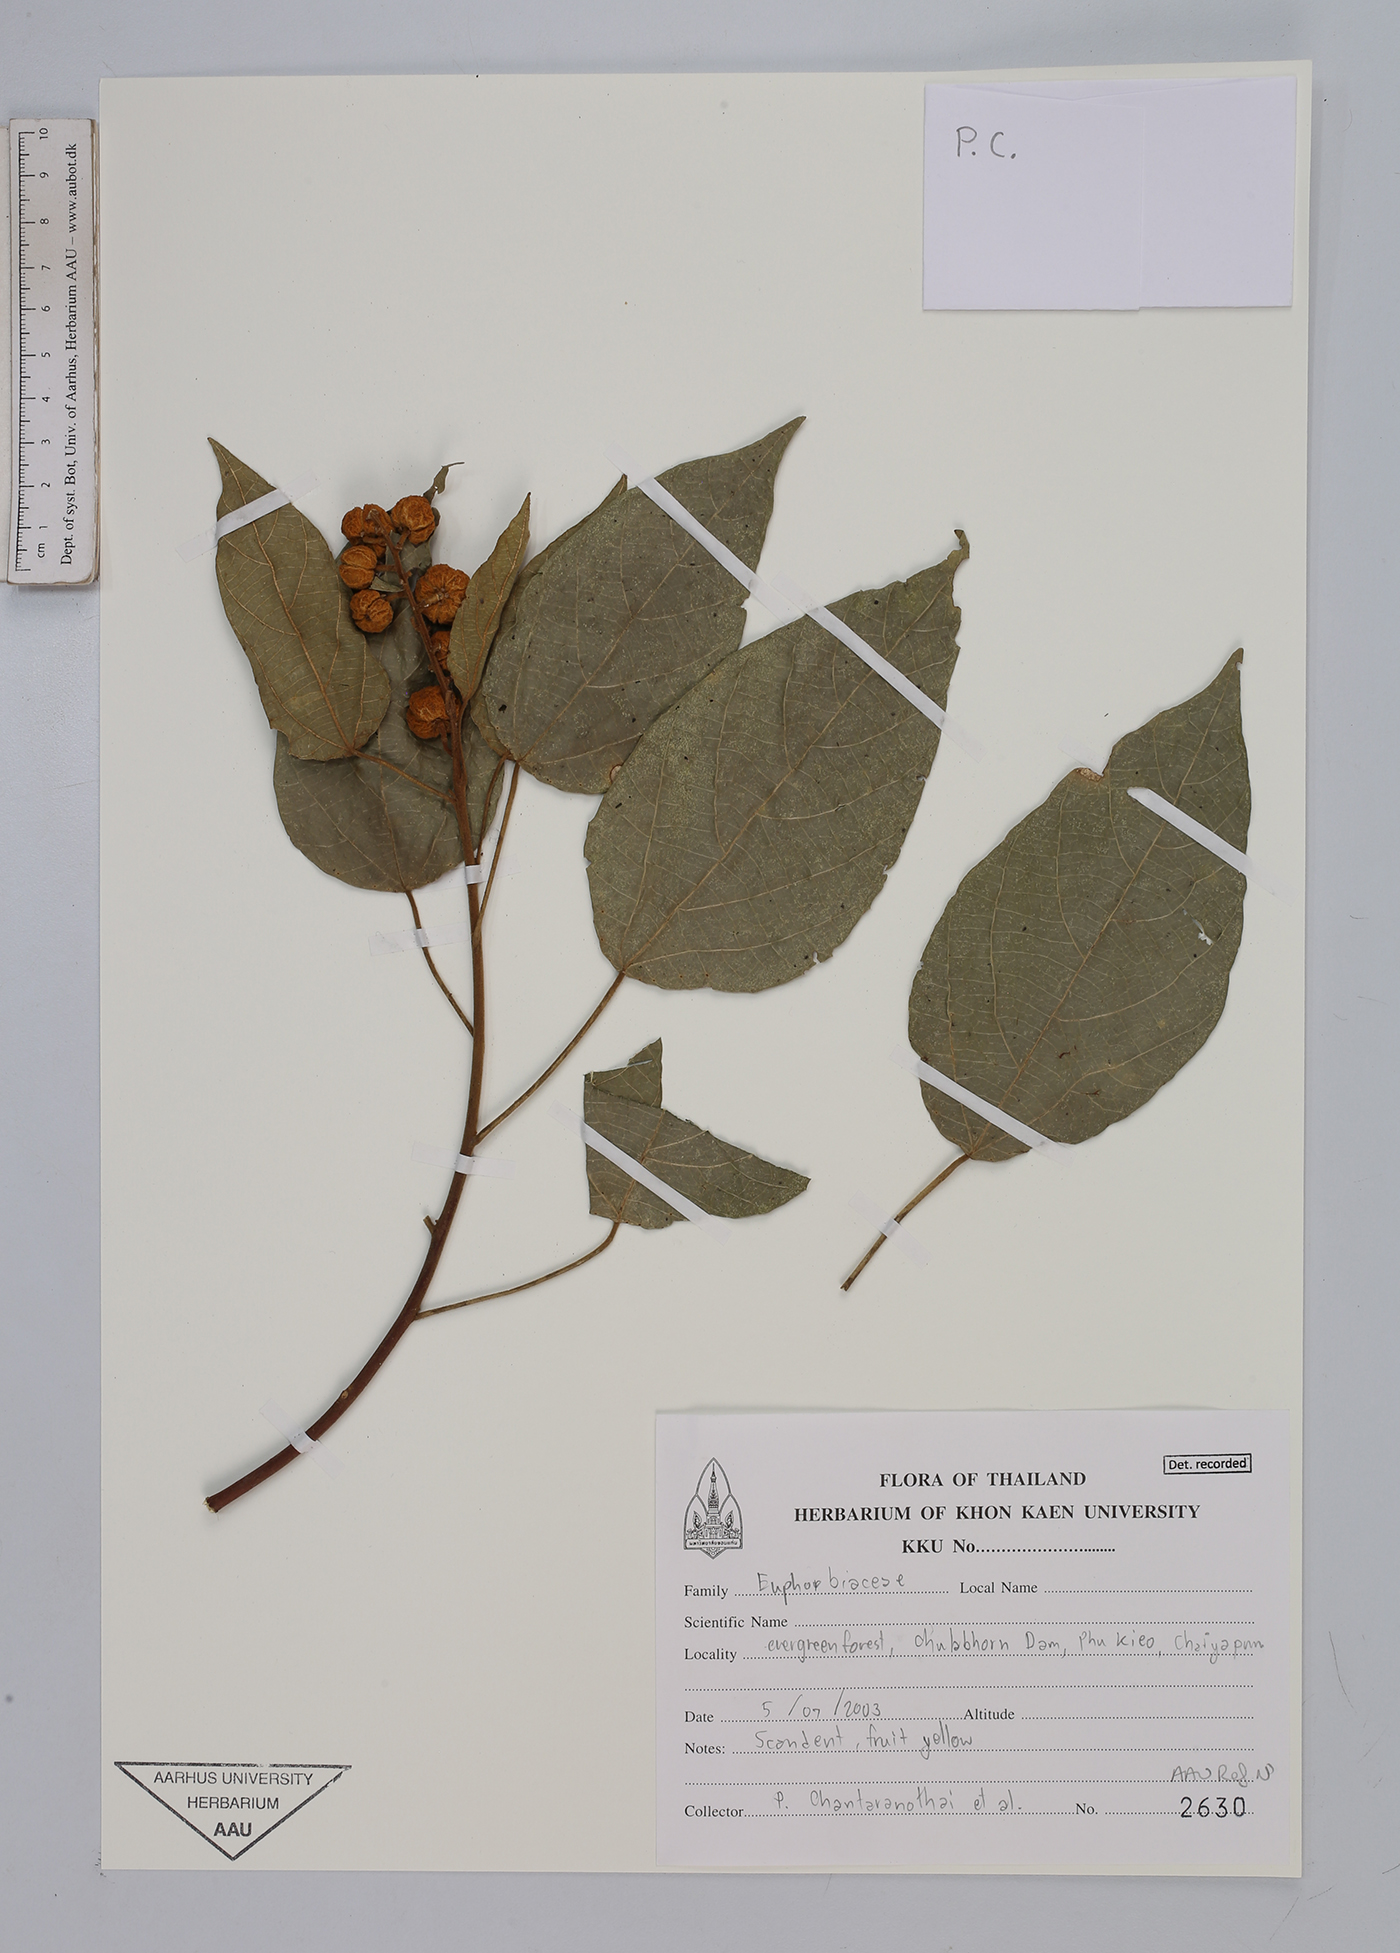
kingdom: Plantae
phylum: Tracheophyta
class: Magnoliopsida
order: Malpighiales
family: Euphorbiaceae
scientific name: Euphorbiaceae
